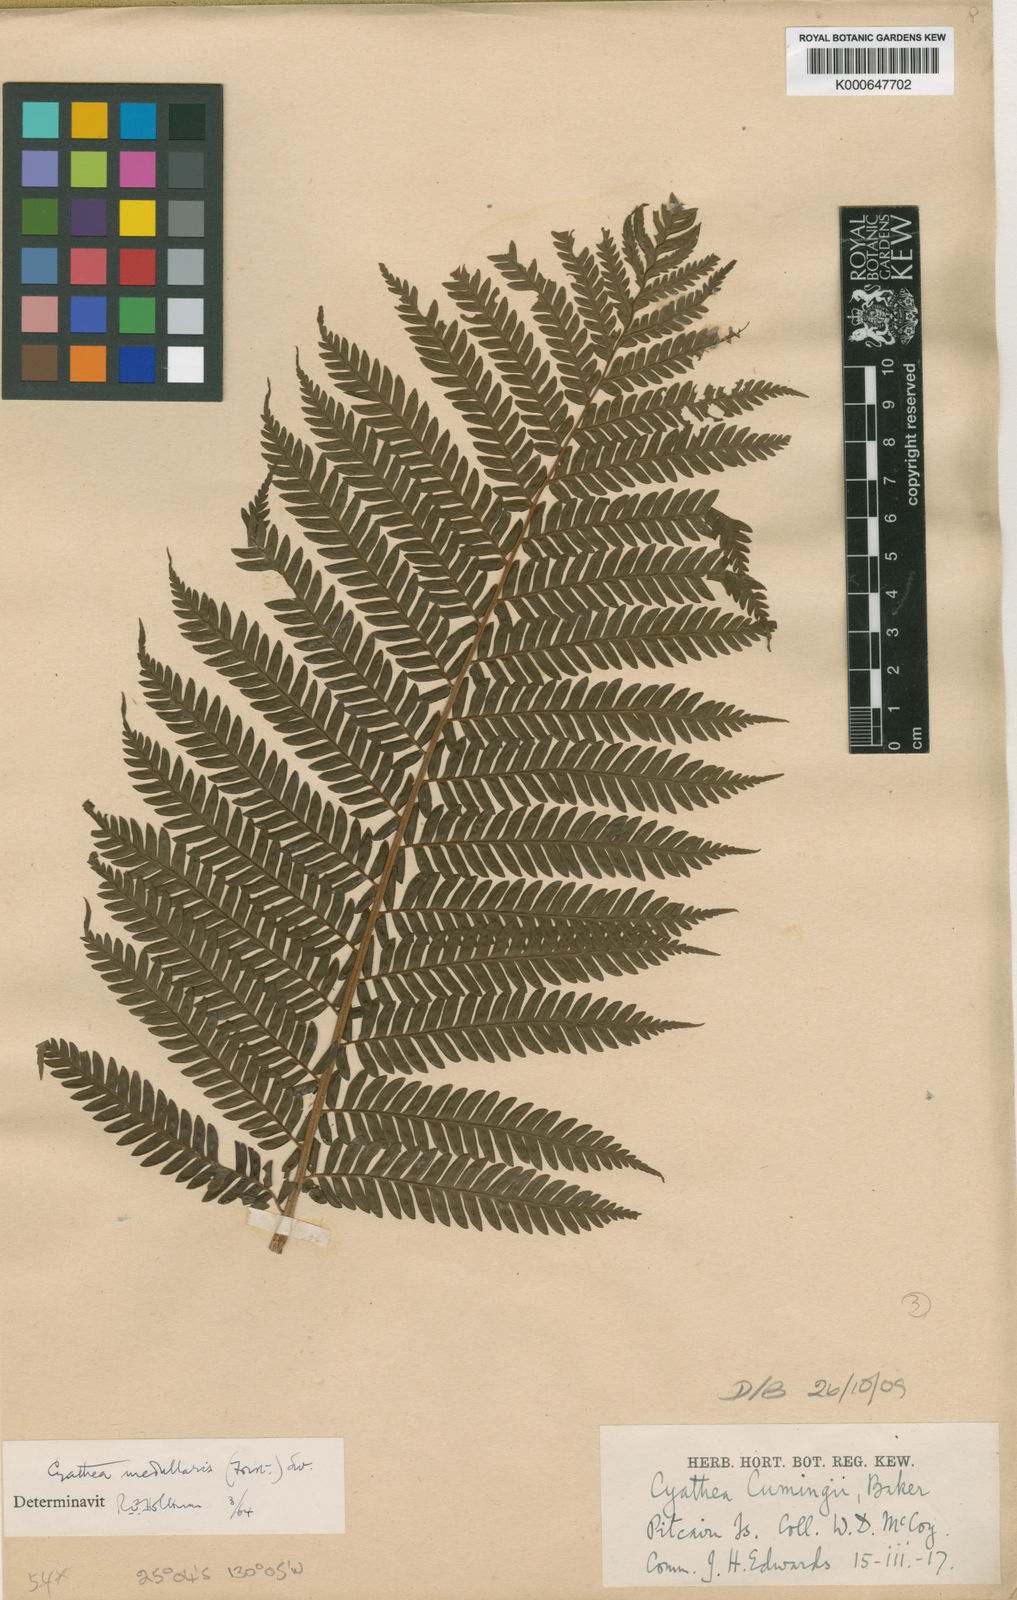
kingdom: Plantae
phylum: Tracheophyta
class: Polypodiopsida
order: Cyatheales
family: Cyatheaceae
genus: Sphaeropteris
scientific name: Sphaeropteris medullaris
